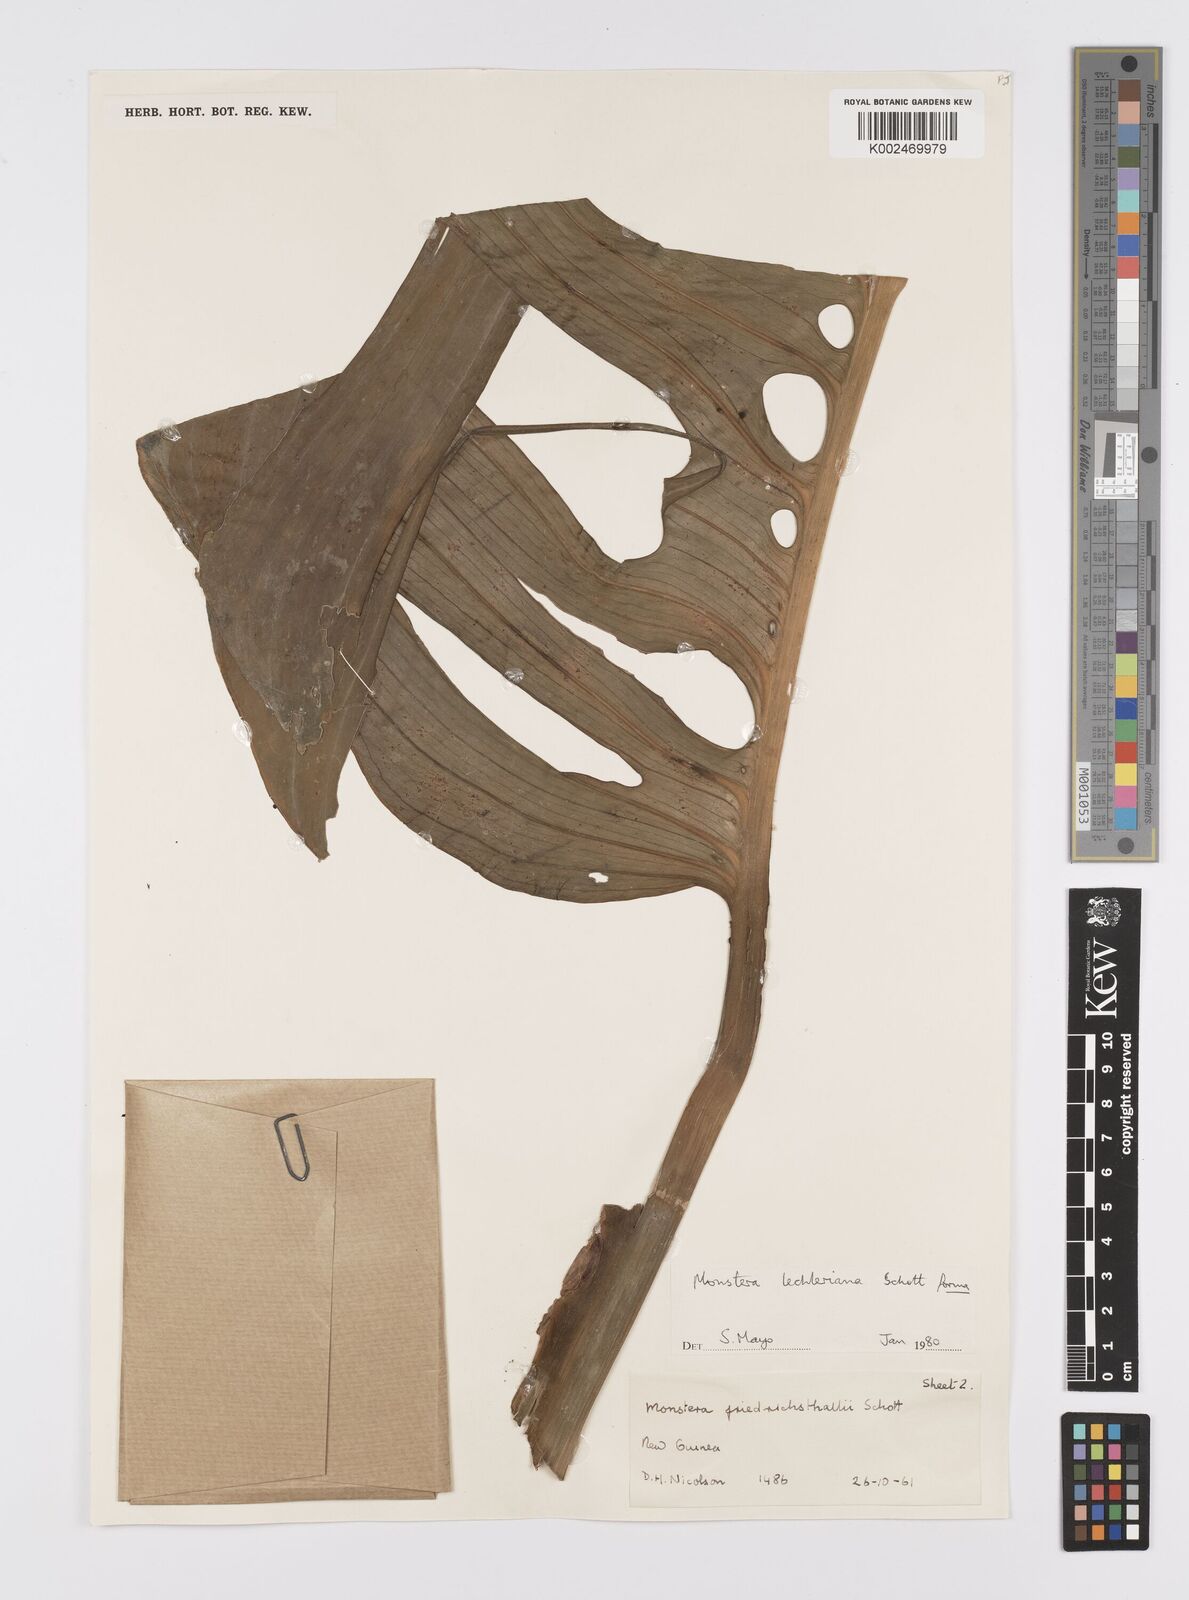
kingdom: Plantae
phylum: Tracheophyta
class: Liliopsida
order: Alismatales
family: Araceae
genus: Monstera
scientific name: Monstera lechleriana
